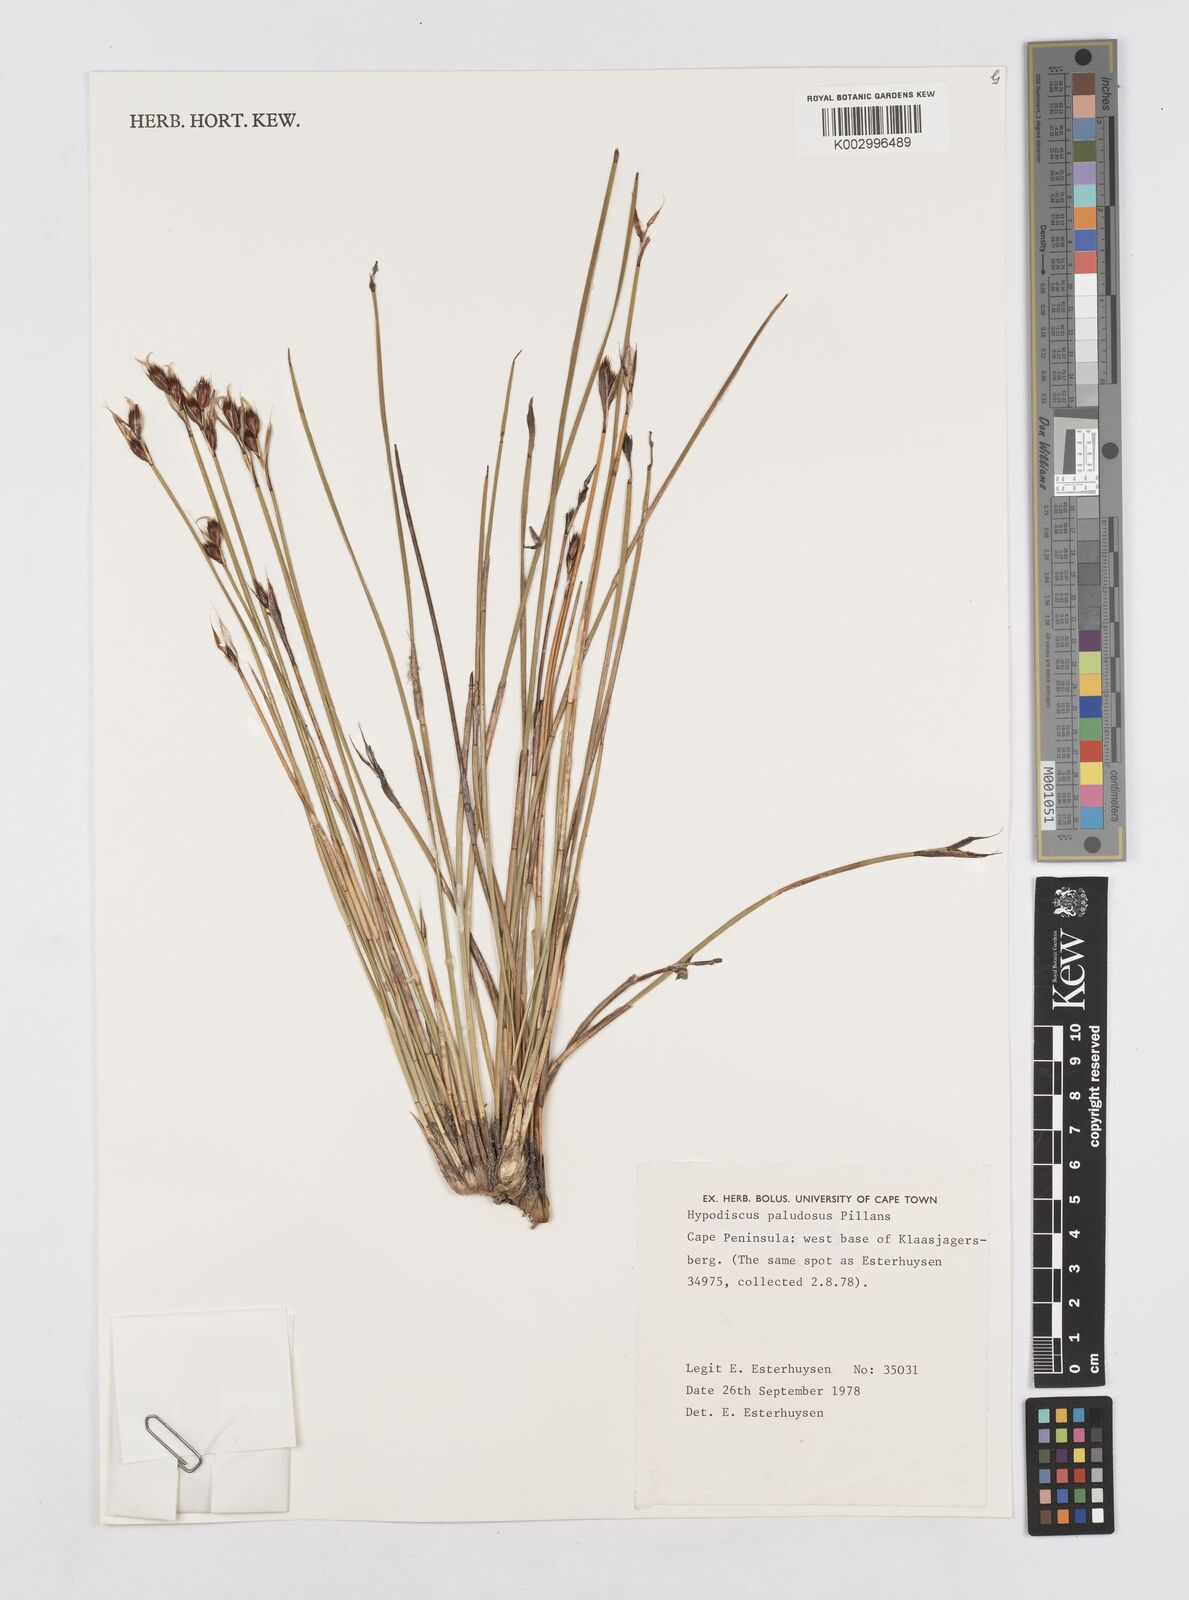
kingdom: Plantae
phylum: Tracheophyta
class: Liliopsida
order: Poales
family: Restionaceae
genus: Hypodiscus
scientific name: Hypodiscus rugosus
